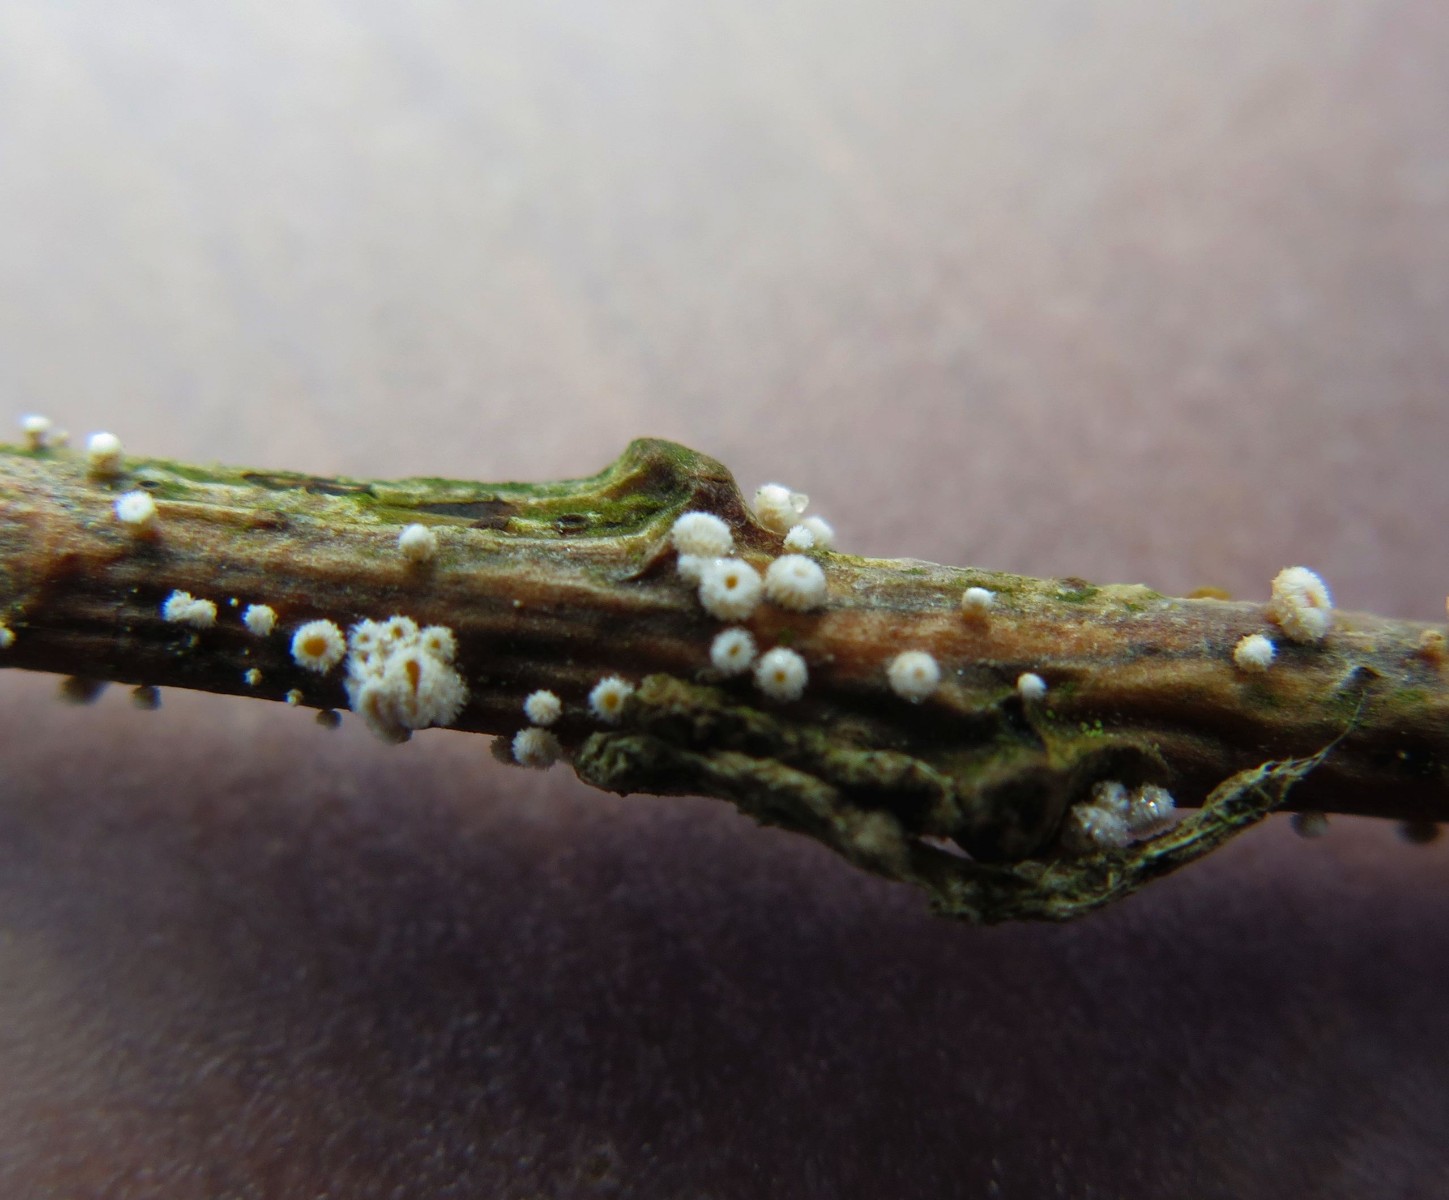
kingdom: Fungi
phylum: Ascomycota
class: Leotiomycetes
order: Helotiales
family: Lachnaceae
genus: Lachnellula
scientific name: Lachnellula occidentalis
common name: Larch disco
